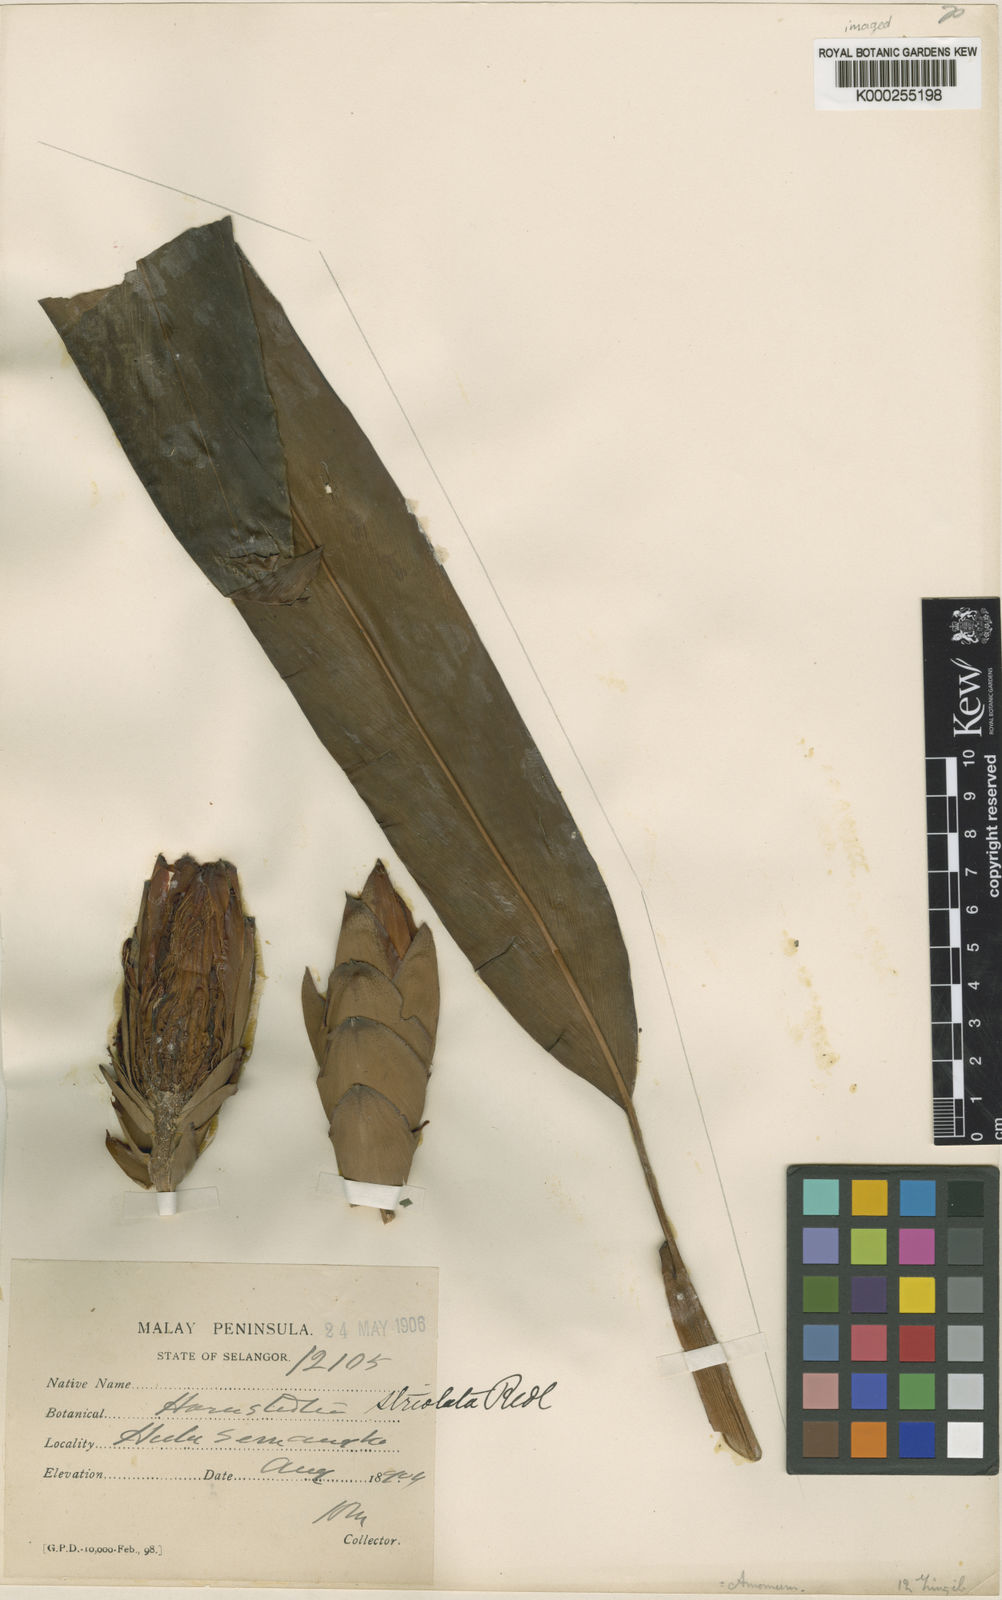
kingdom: Plantae
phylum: Tracheophyta
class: Liliopsida
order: Zingiberales
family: Zingiberaceae
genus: Hornstedtia
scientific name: Hornstedtia striolata
